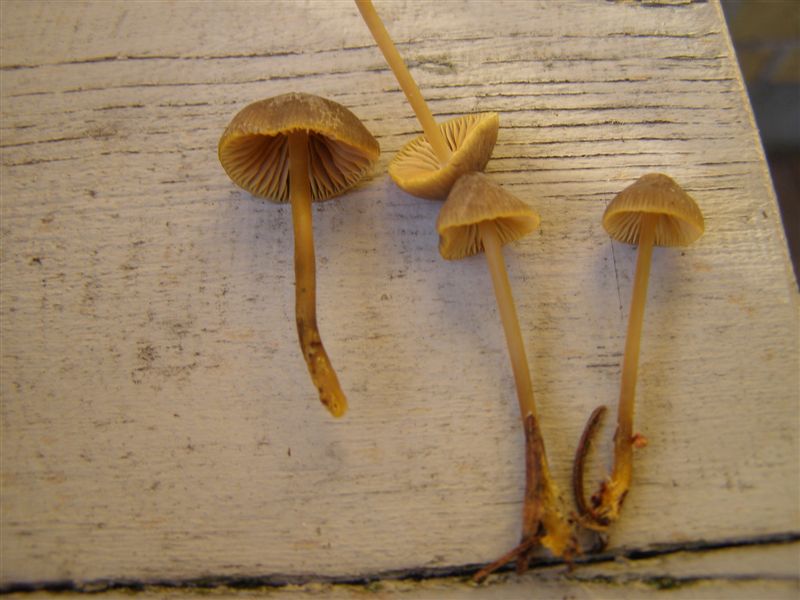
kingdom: Fungi
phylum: Basidiomycota
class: Agaricomycetes
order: Agaricales
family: Mycenaceae
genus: Mycena
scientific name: Mycena aurantiomarginata
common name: orangeægget huesvamp
